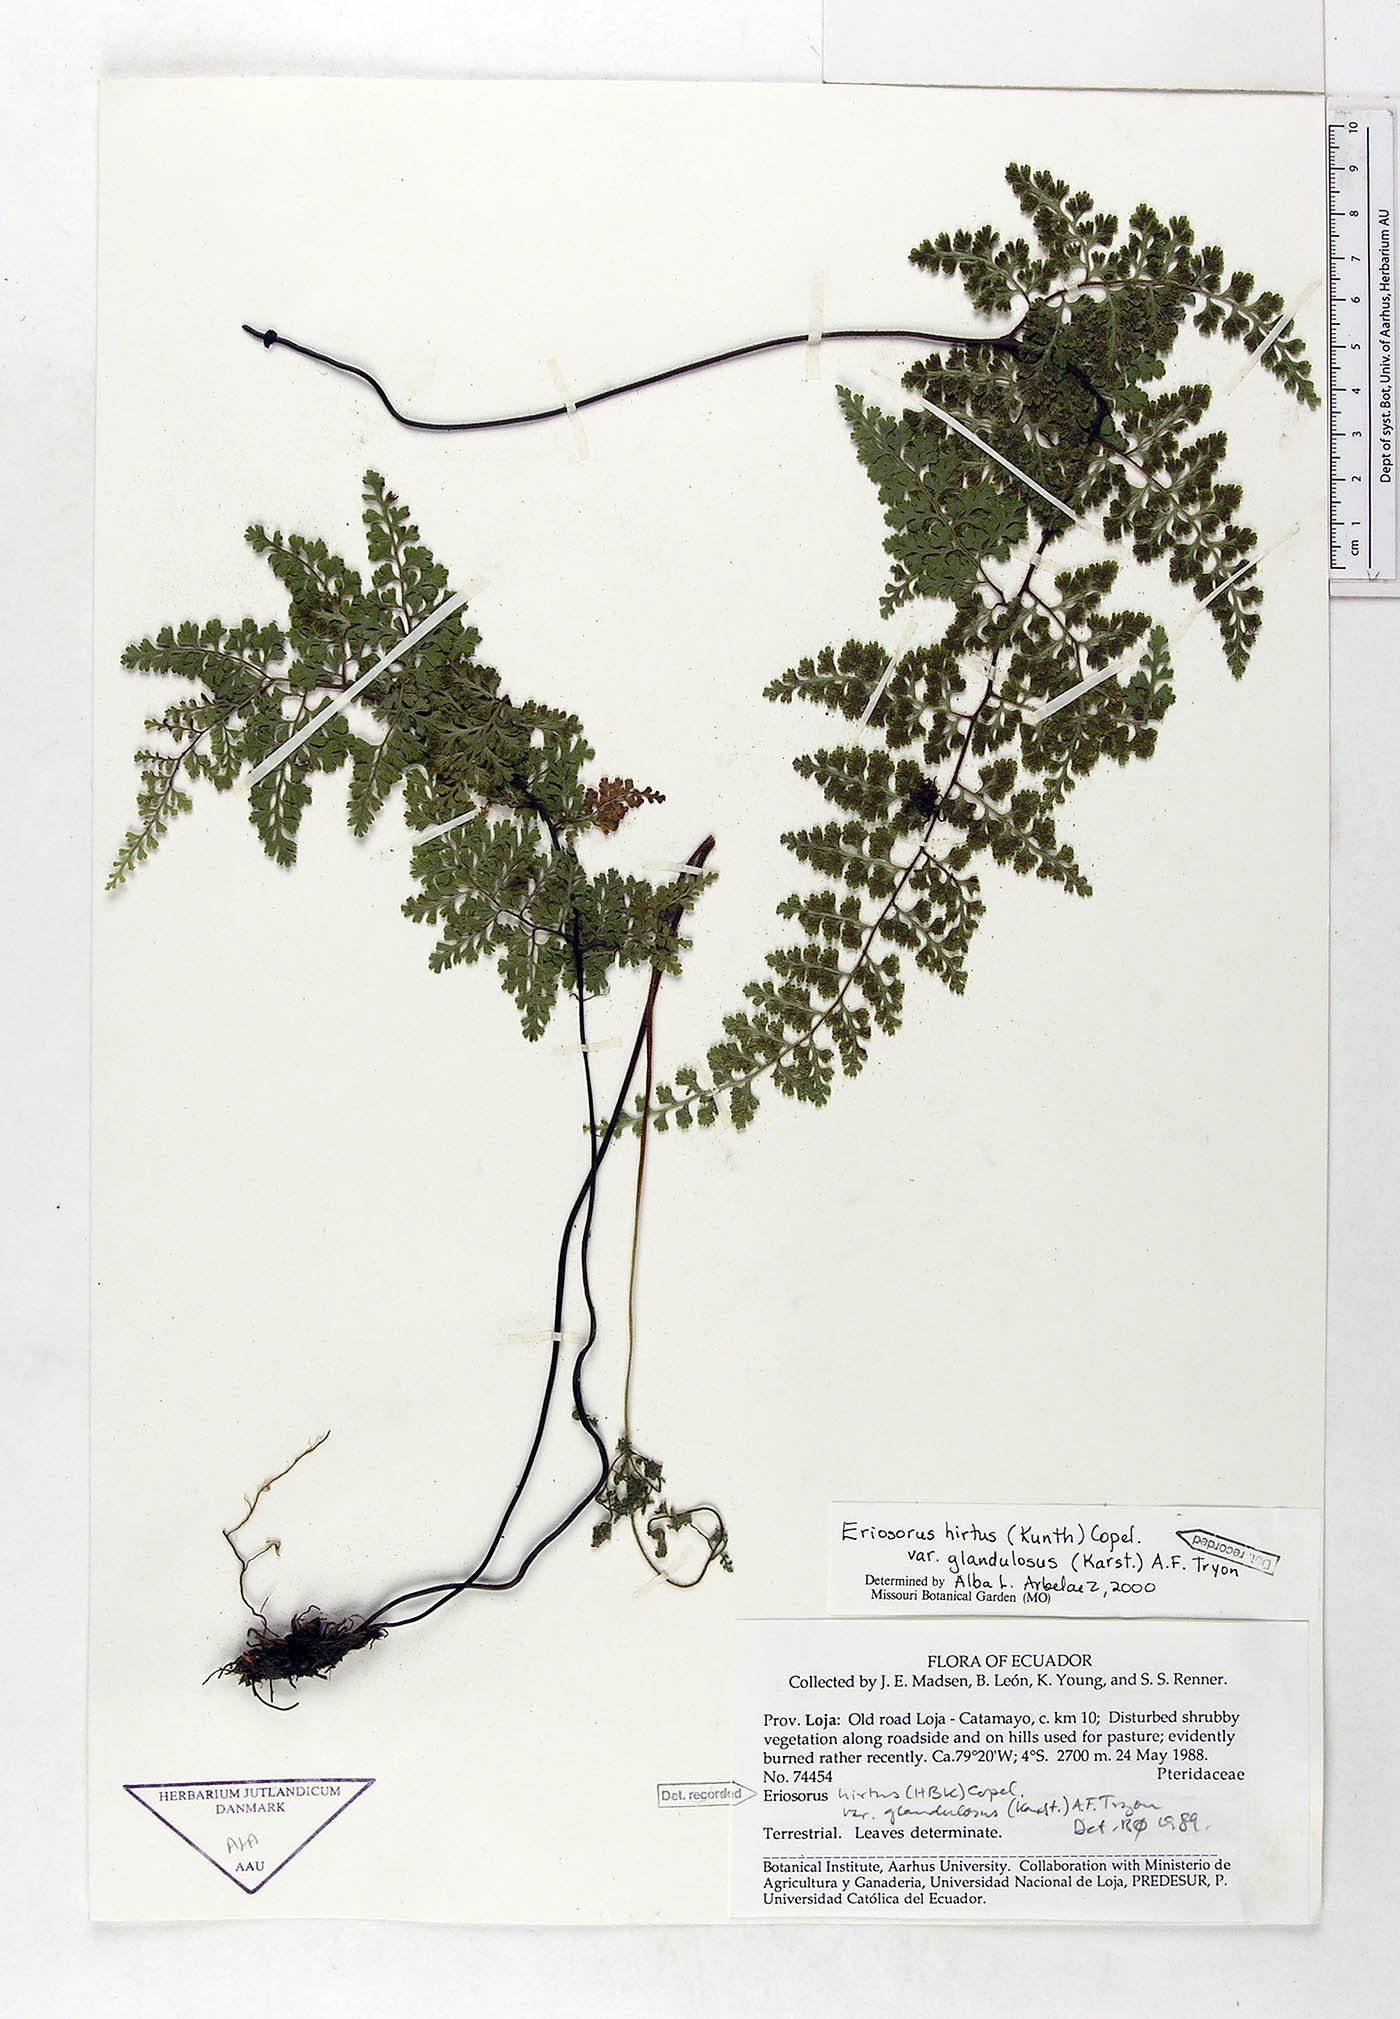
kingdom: Plantae
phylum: Tracheophyta
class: Polypodiopsida
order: Polypodiales
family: Pteridaceae
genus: Jamesonia
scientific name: Jamesonia hirta
